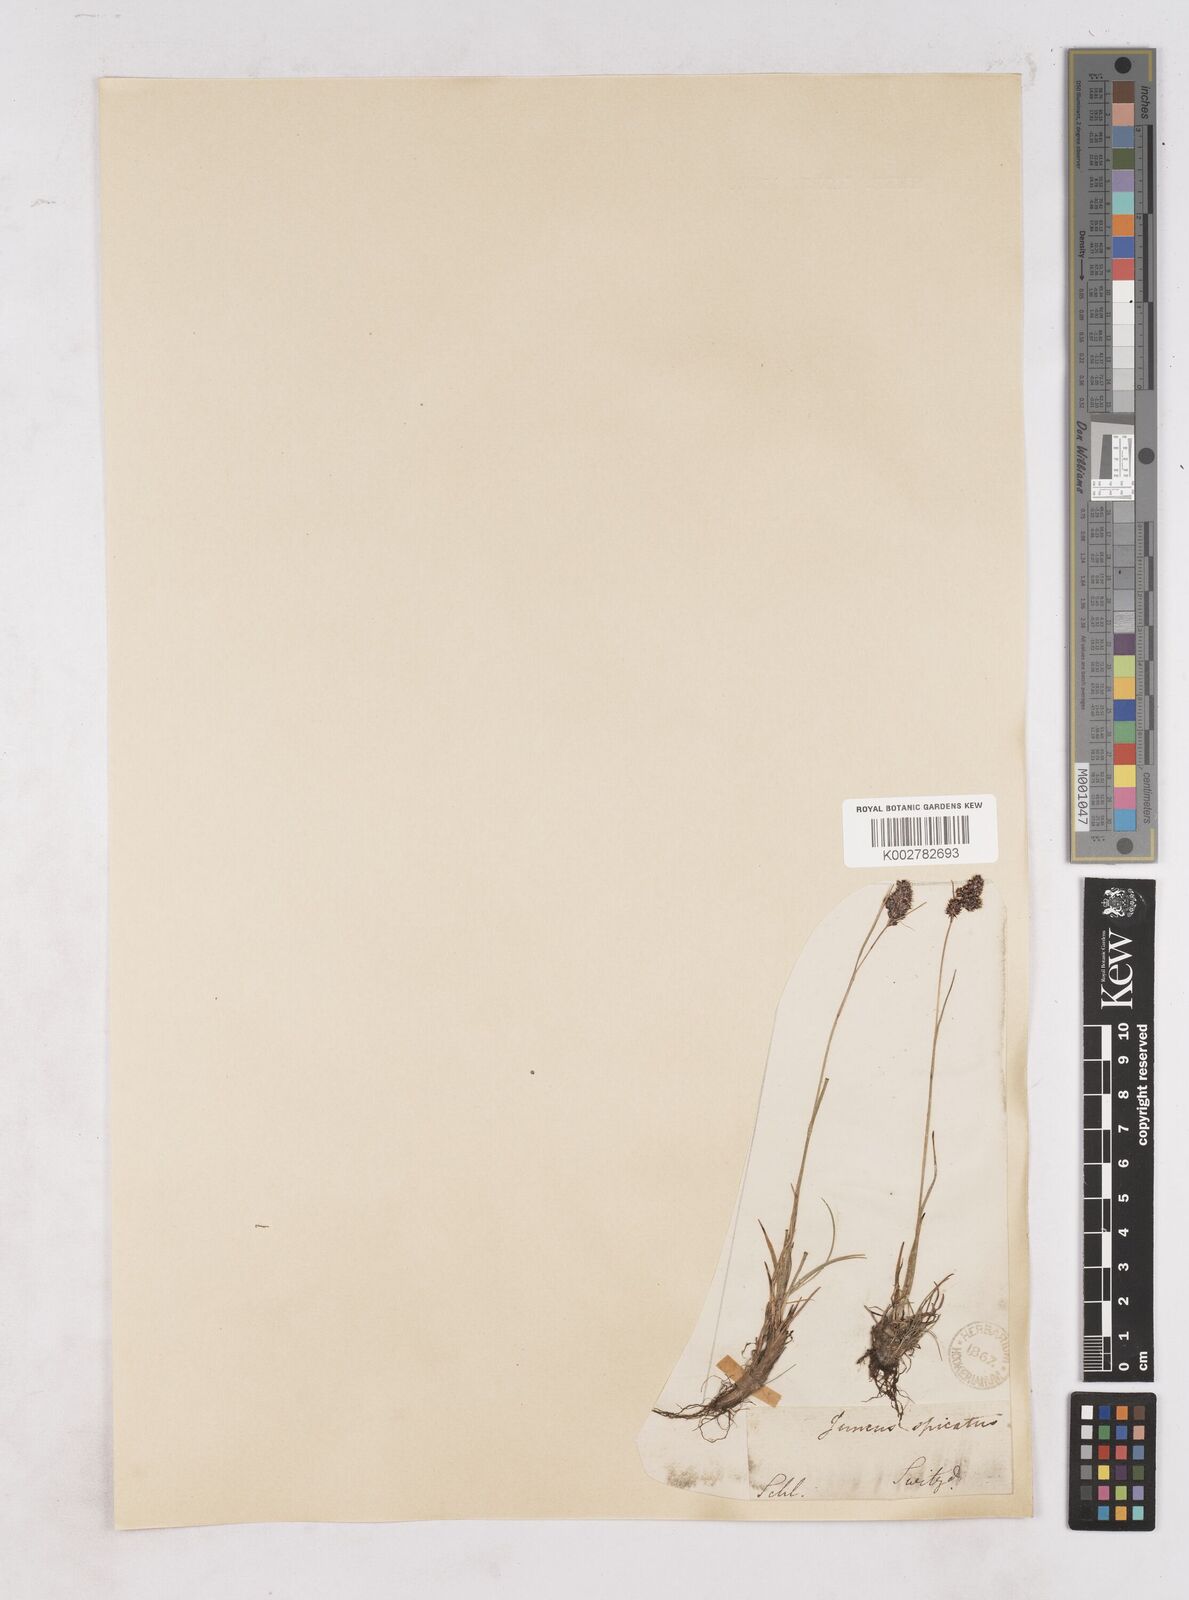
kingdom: Plantae
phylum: Tracheophyta
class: Liliopsida
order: Poales
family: Juncaceae
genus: Luzula
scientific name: Luzula spicata
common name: Spiked wood-rush
